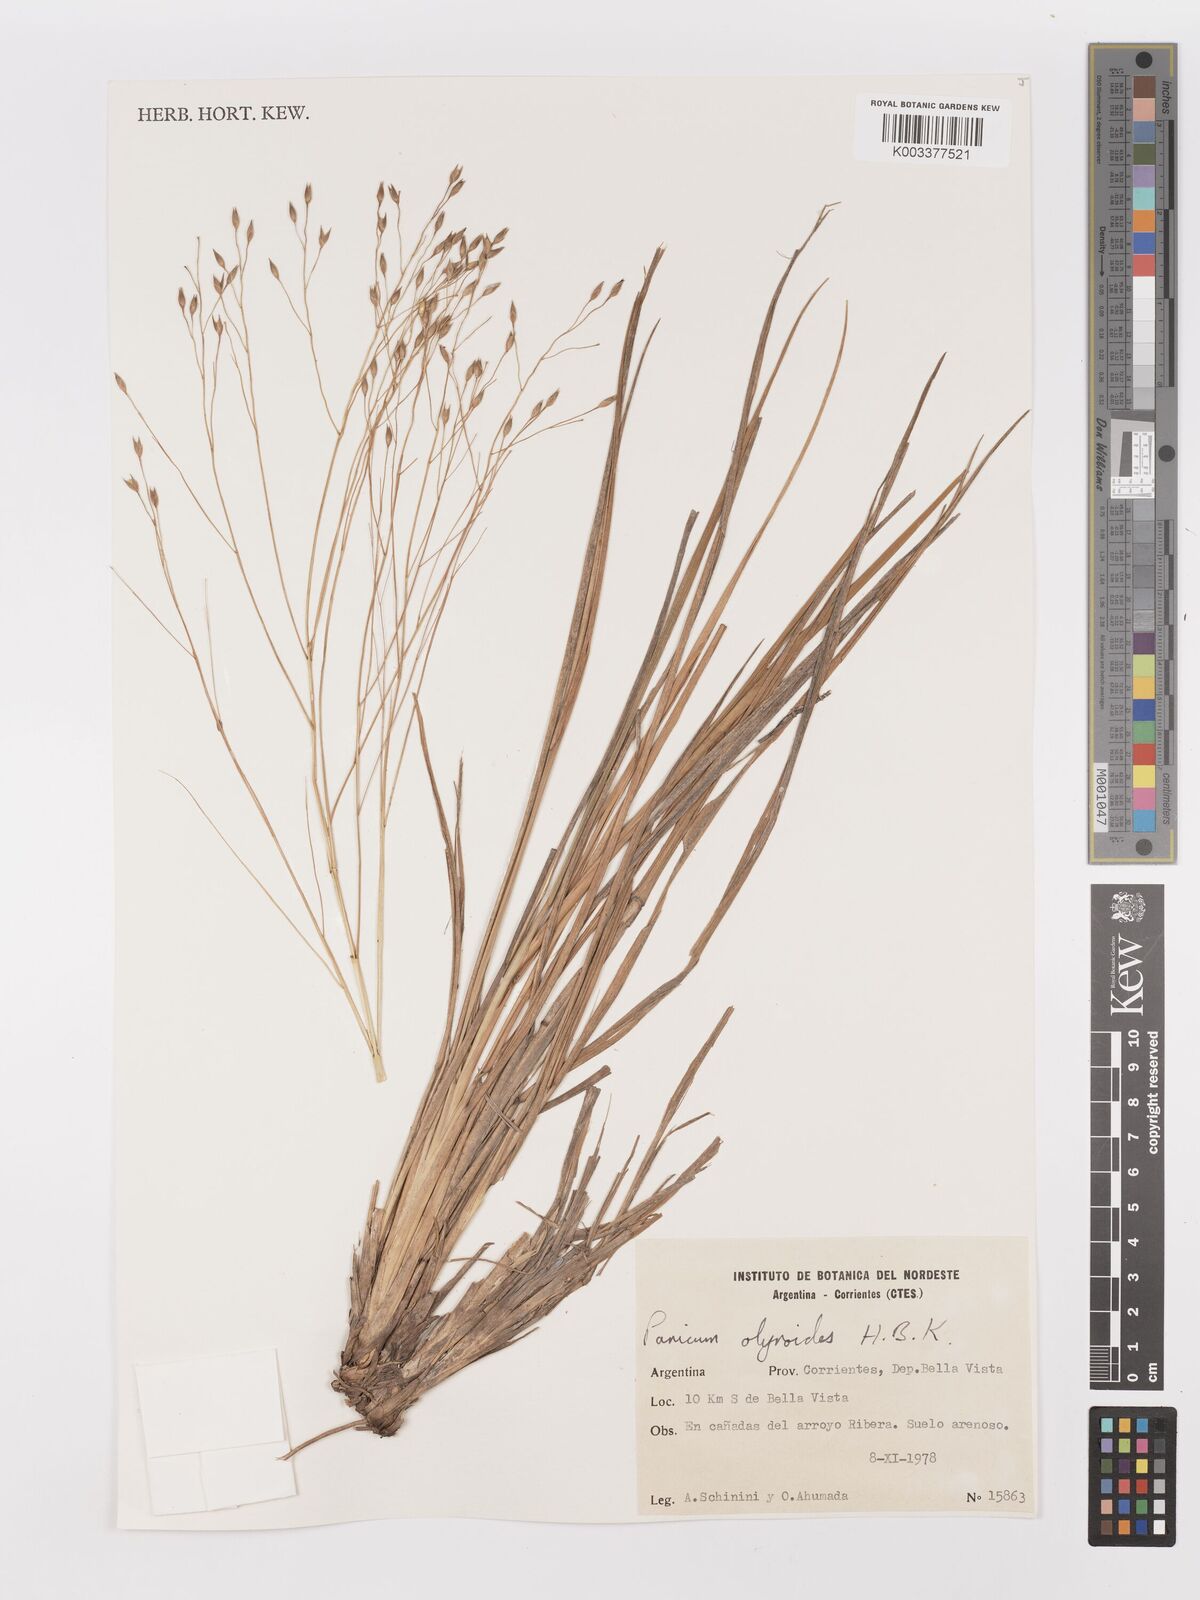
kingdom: Plantae
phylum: Tracheophyta
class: Liliopsida
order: Poales
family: Poaceae
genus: Panicum
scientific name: Panicum olyroides
